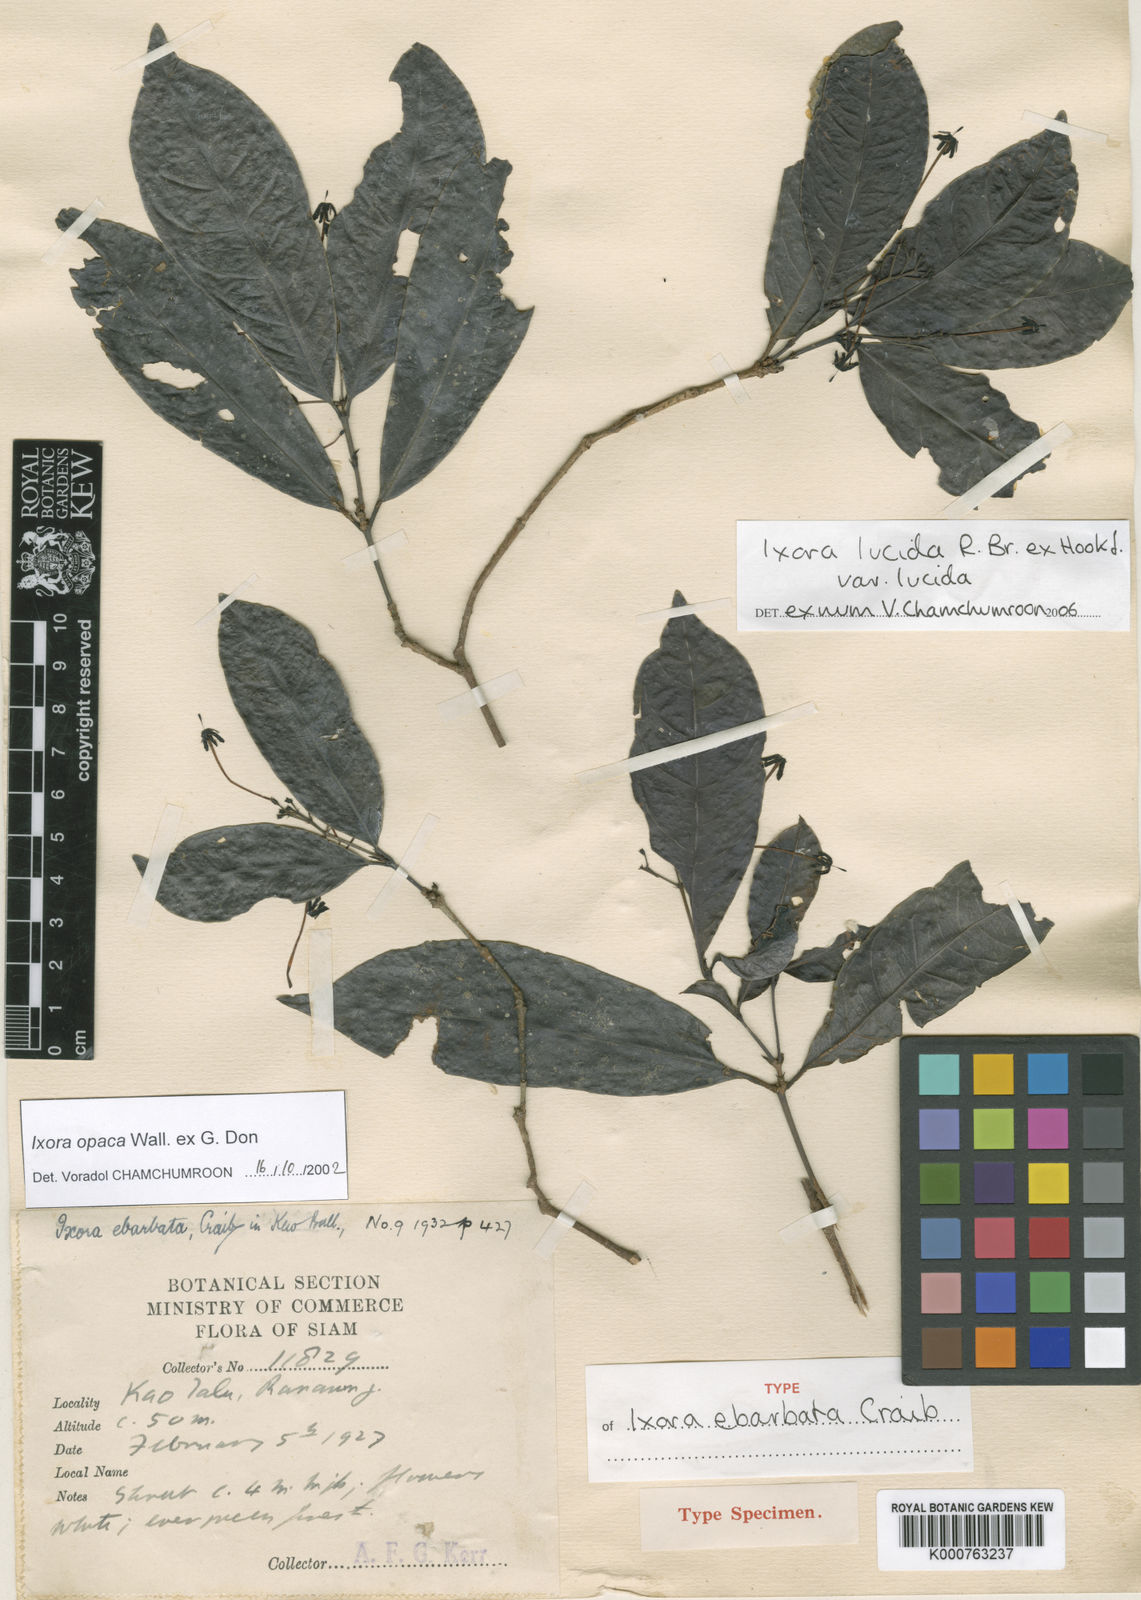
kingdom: Plantae
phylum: Tracheophyta
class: Magnoliopsida
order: Gentianales
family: Rubiaceae
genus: Ixora
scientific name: Ixora lucida
